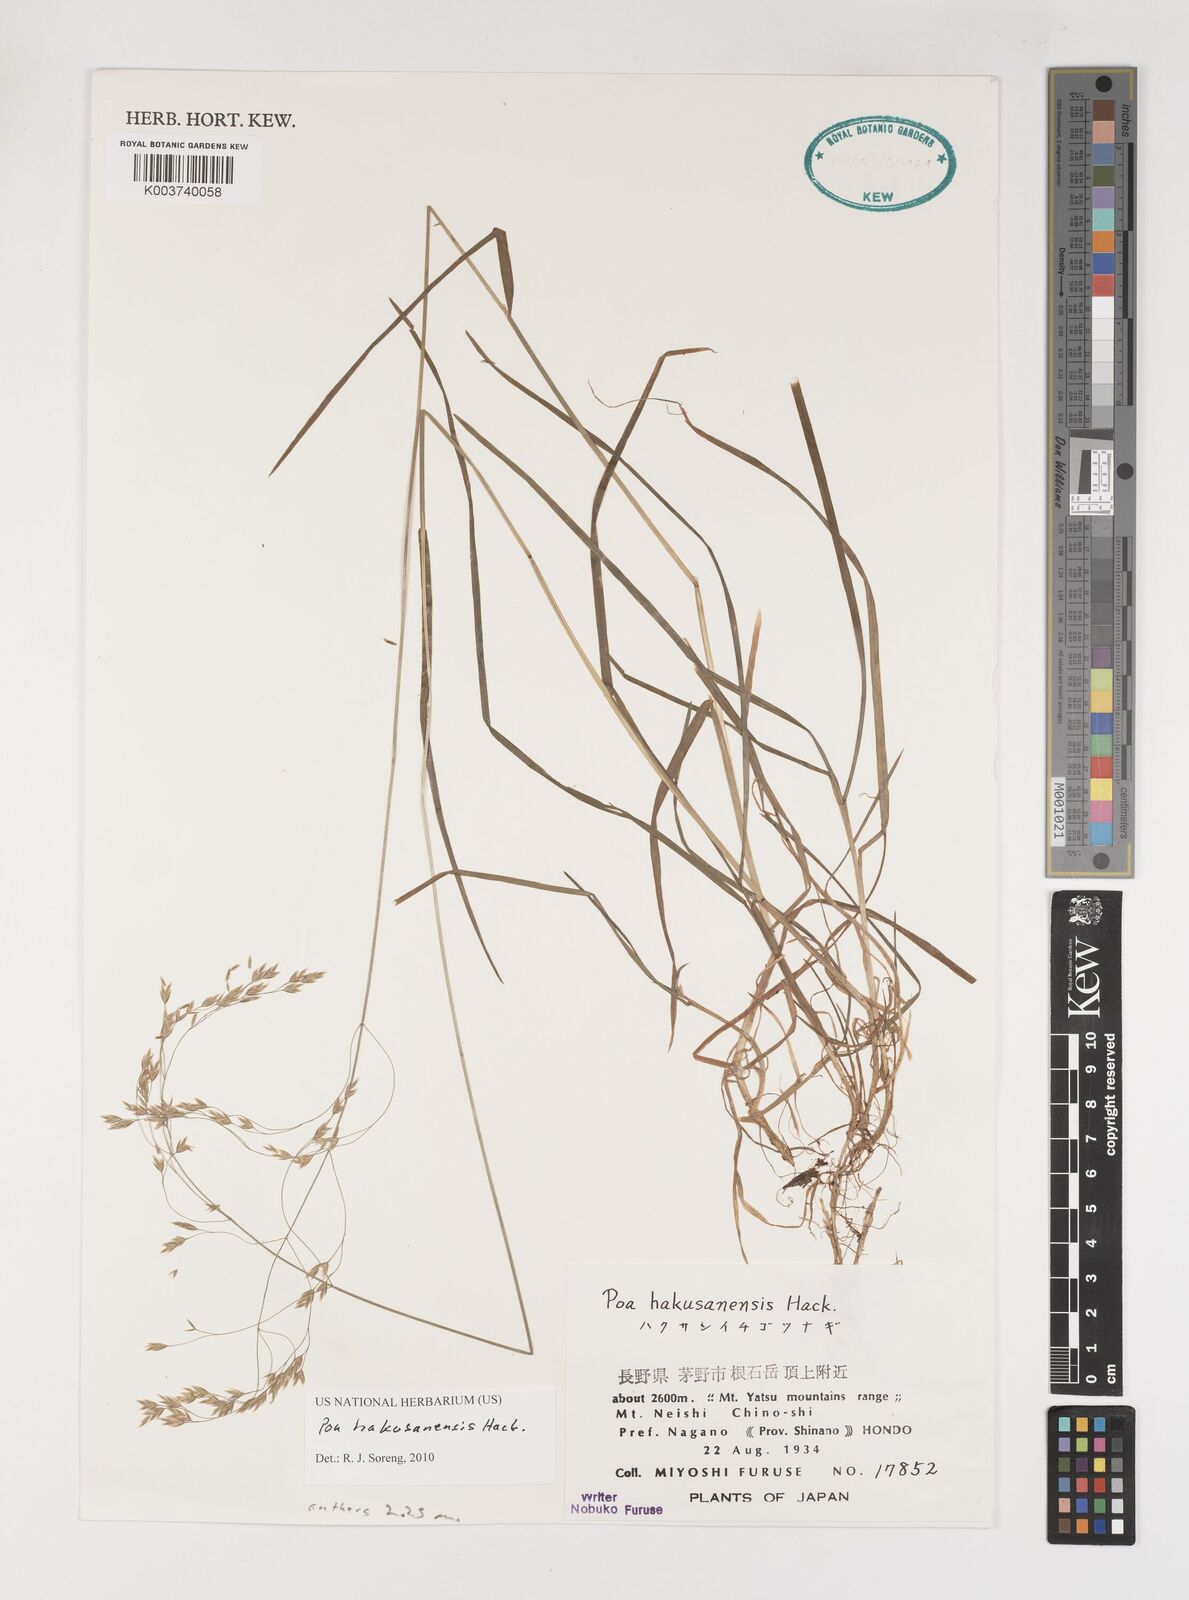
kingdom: Plantae
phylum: Tracheophyta
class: Liliopsida
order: Poales
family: Poaceae
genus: Poa
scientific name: Poa hakusanensis
